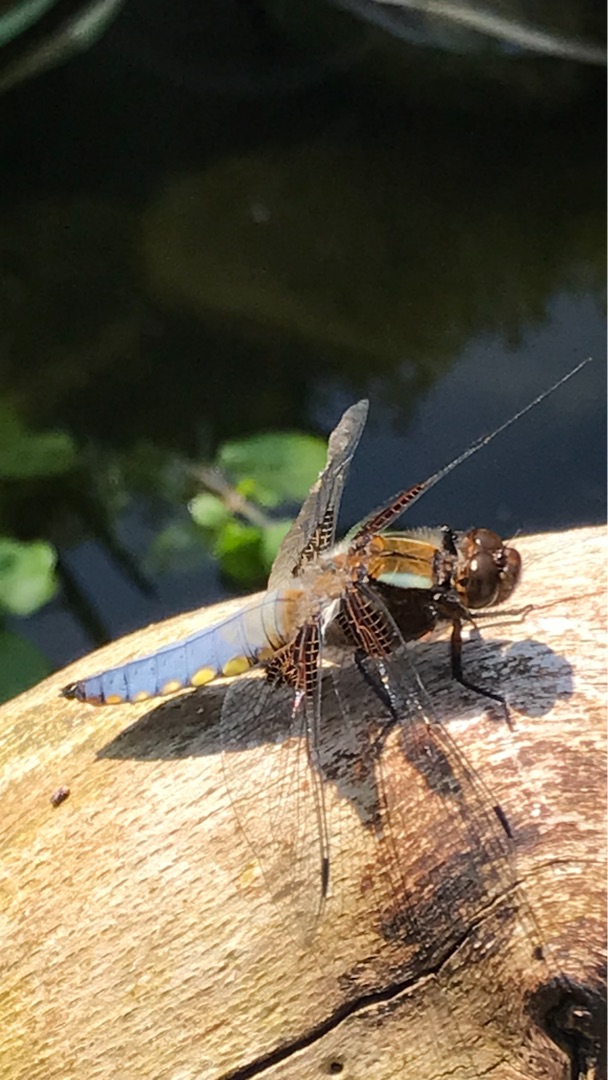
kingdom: Animalia
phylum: Arthropoda
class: Insecta
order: Odonata
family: Libellulidae
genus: Libellula
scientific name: Libellula depressa
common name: Blå libel
